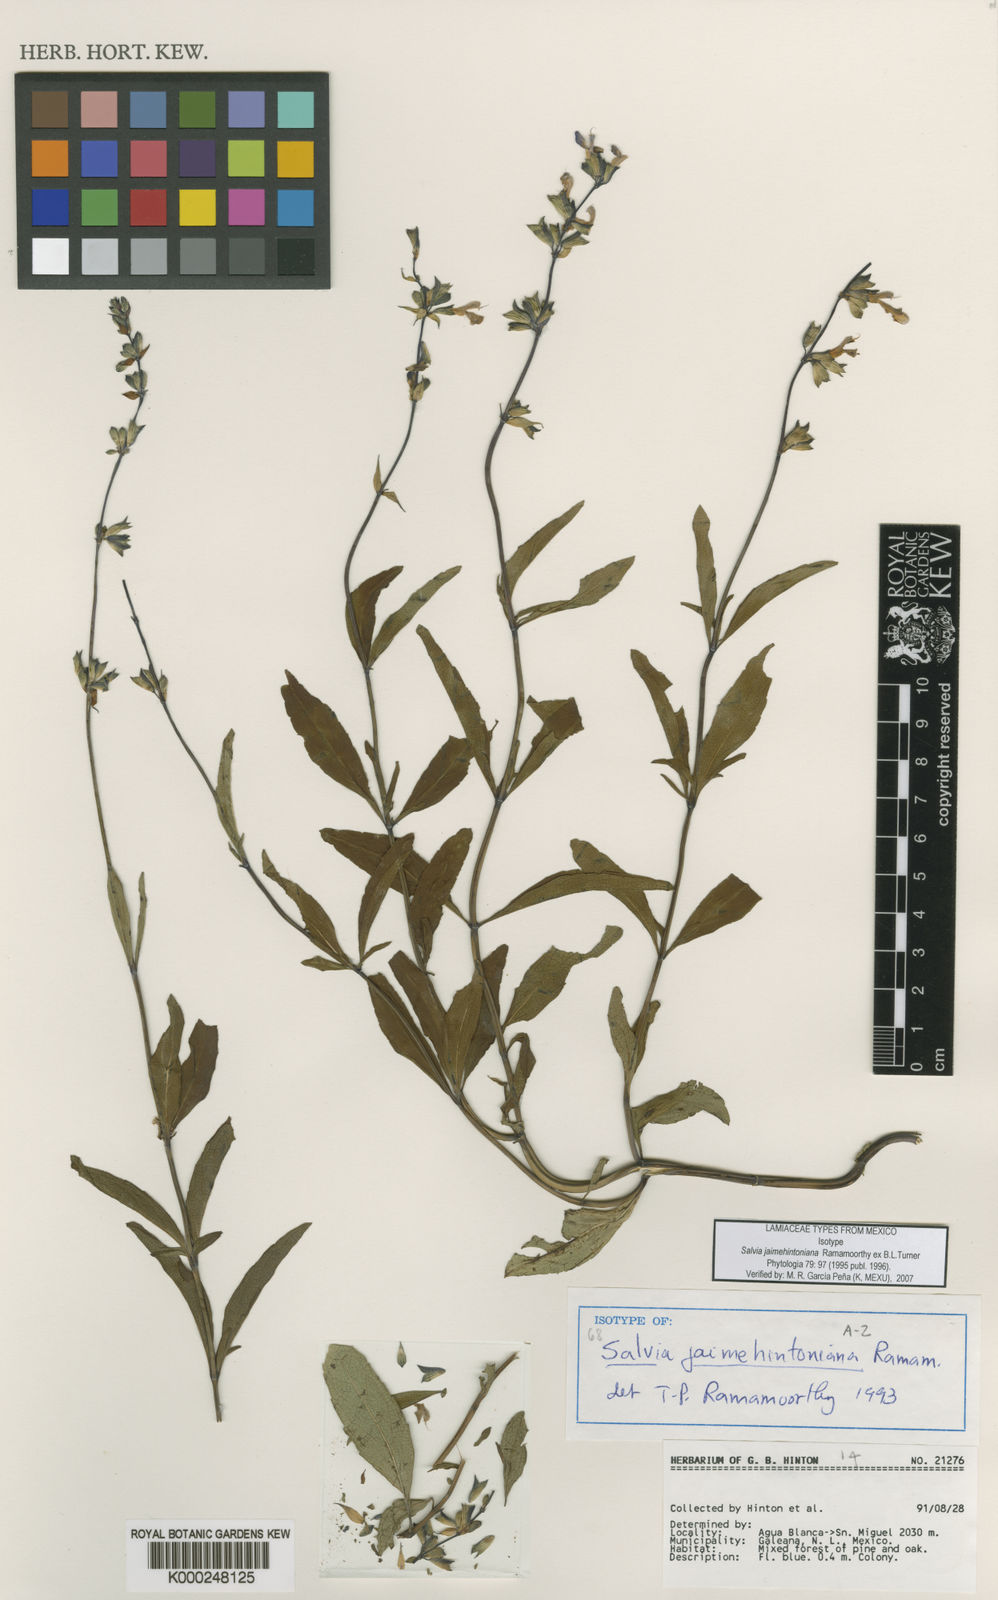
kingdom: Plantae
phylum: Tracheophyta
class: Magnoliopsida
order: Lamiales
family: Lamiaceae
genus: Salvia
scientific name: Salvia jaimehintoniana
